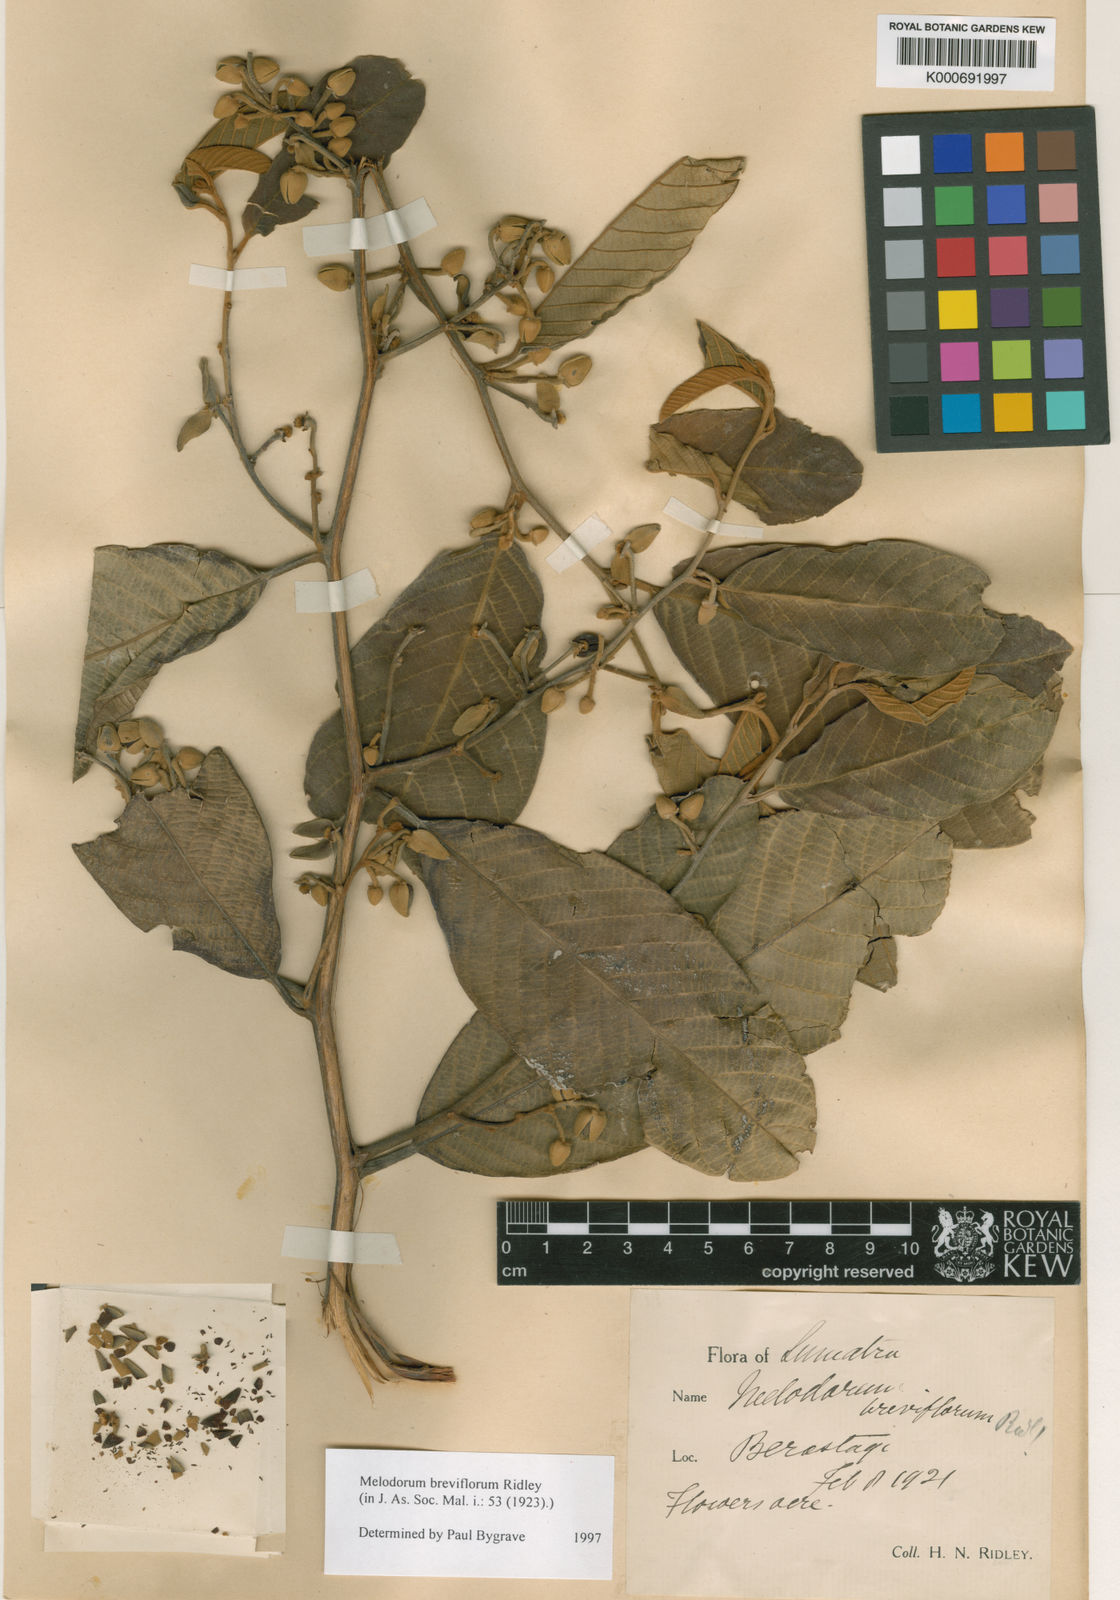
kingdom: Plantae
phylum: Tracheophyta
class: Magnoliopsida
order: Magnoliales
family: Annonaceae
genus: Fissistigma
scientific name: Fissistigma latifolium
